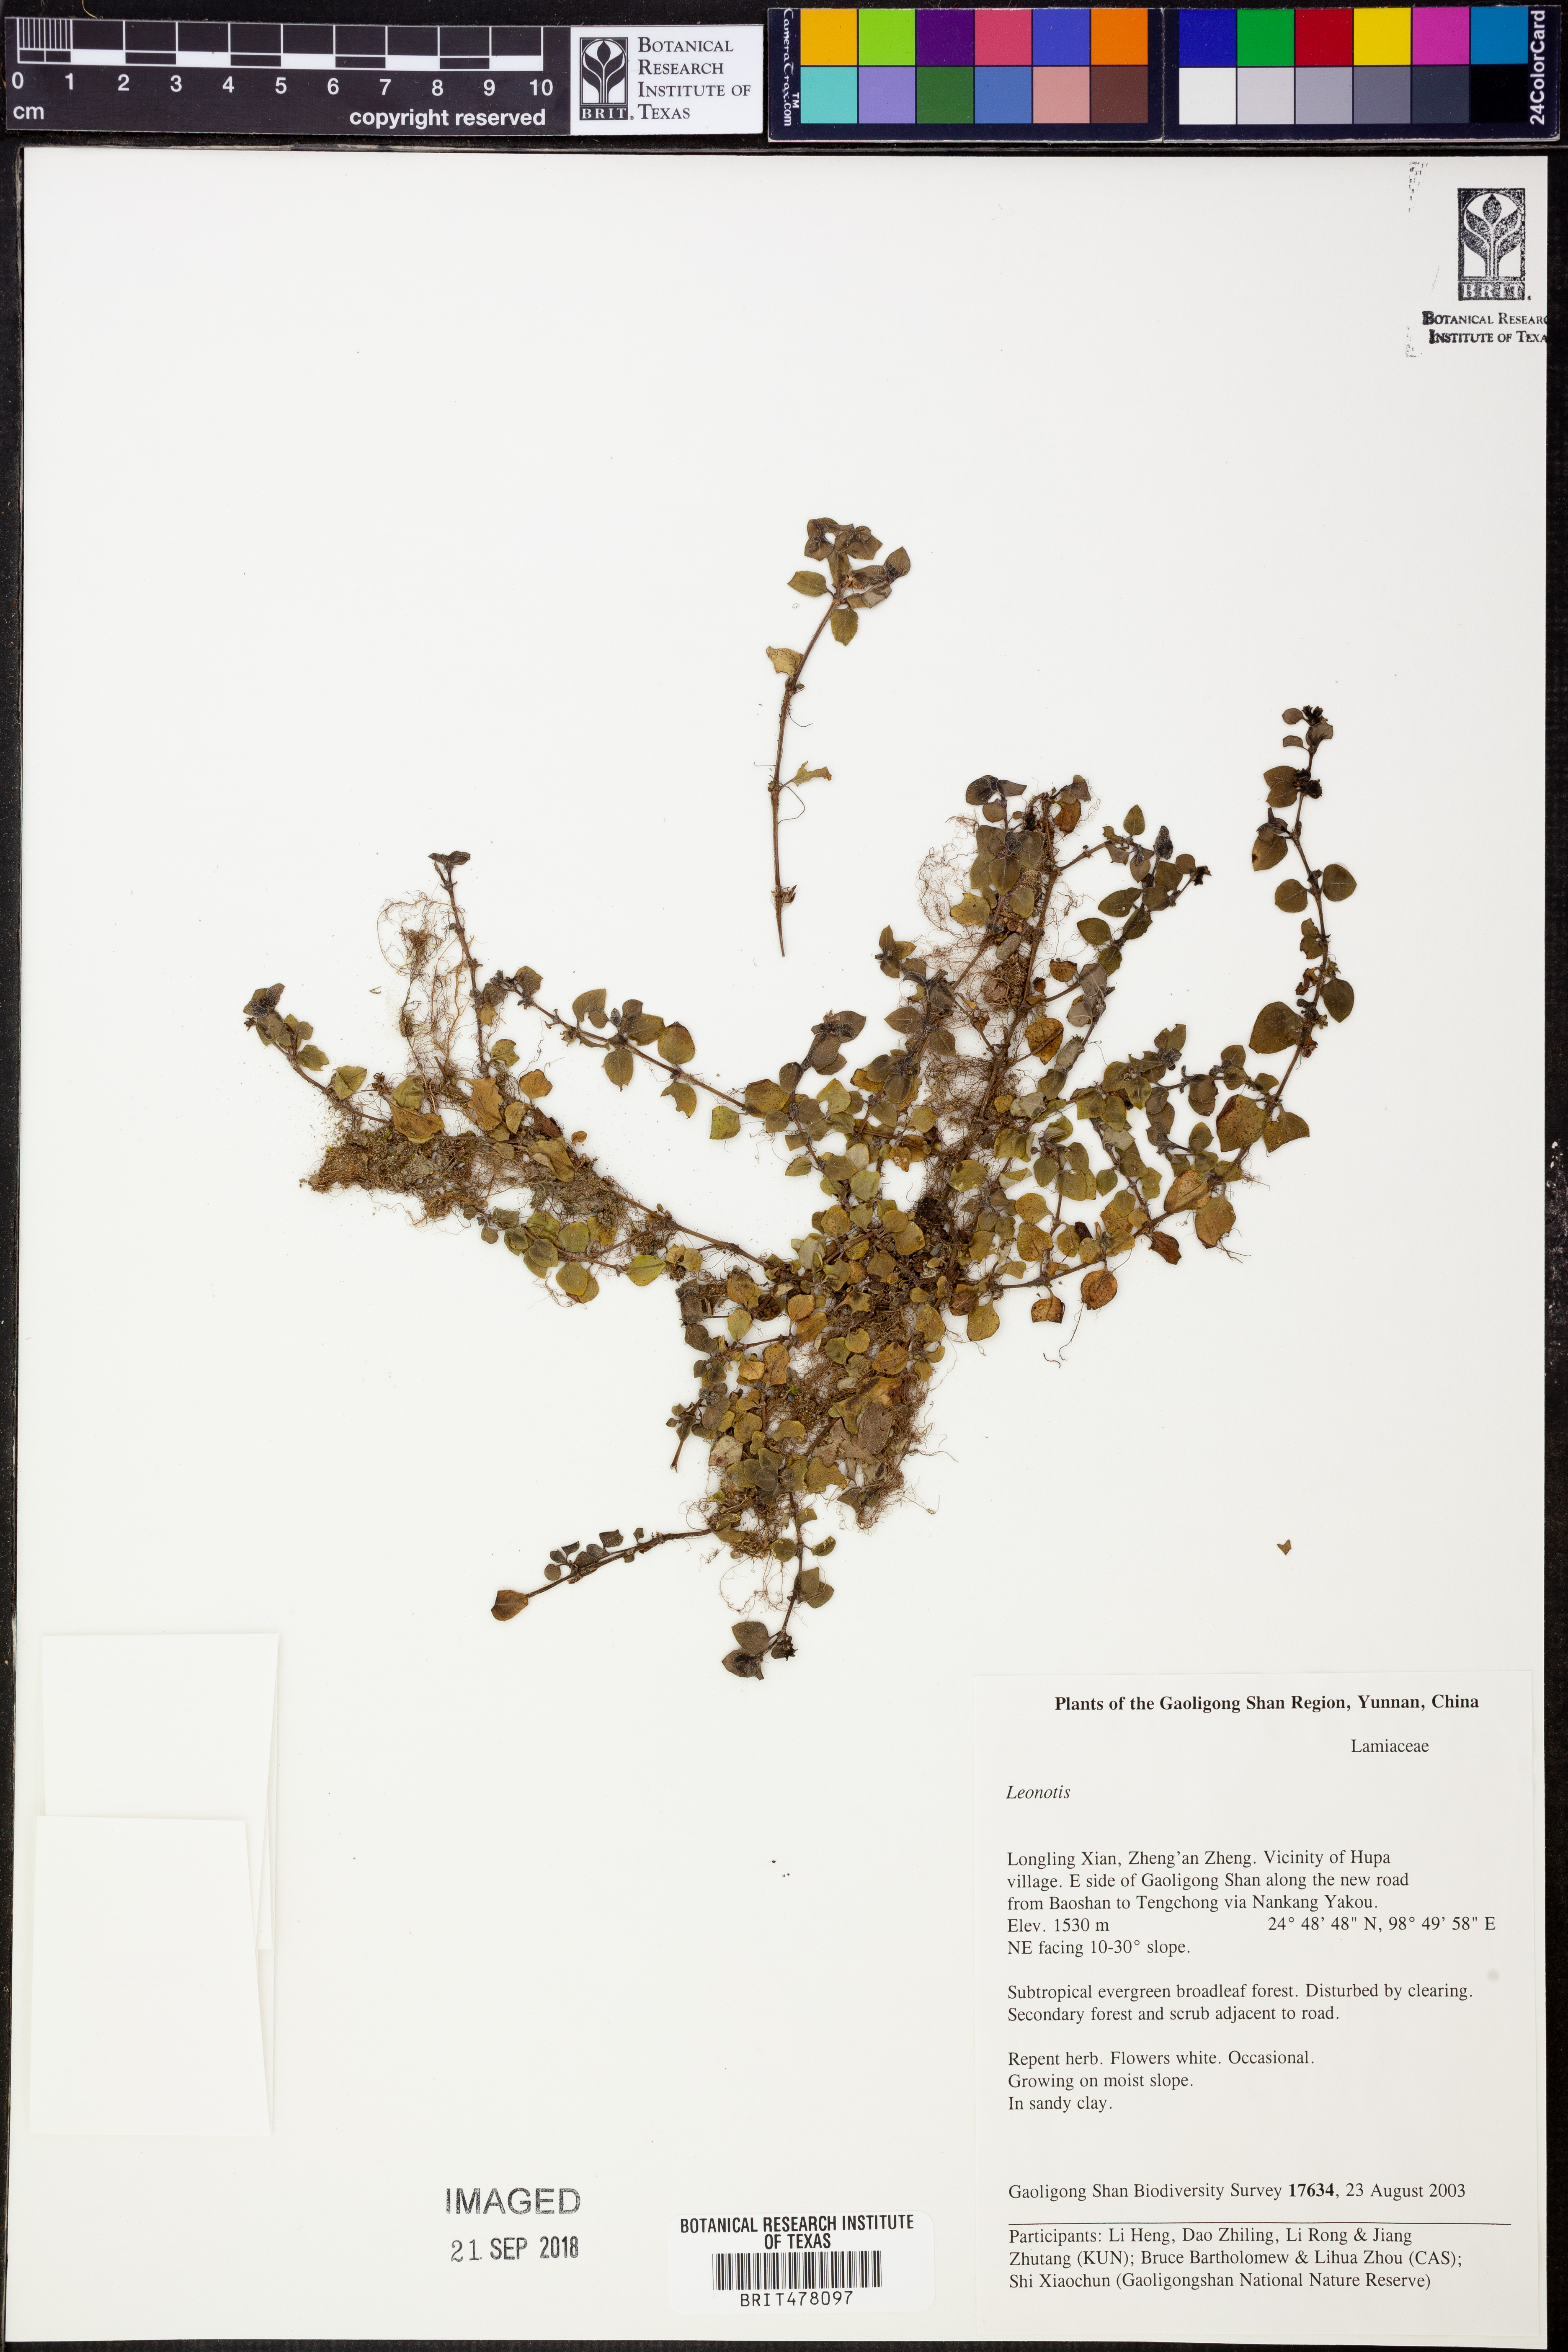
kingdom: Plantae
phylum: Tracheophyta
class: Magnoliopsida
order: Lamiales
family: Lamiaceae
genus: Leonotis
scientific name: Leonotis
